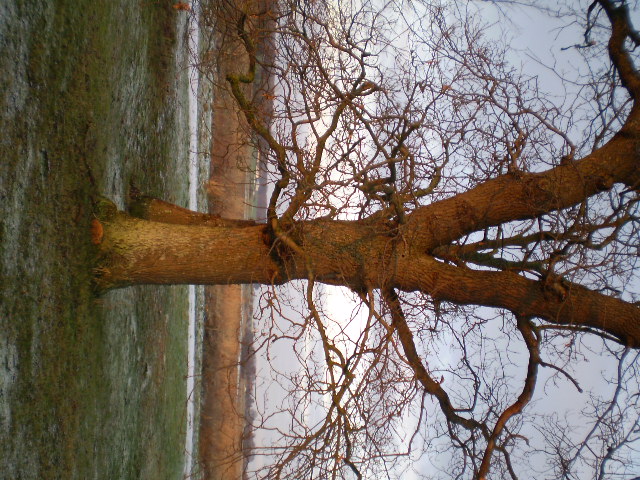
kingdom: Fungi
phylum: Basidiomycota
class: Agaricomycetes
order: Polyporales
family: Grifolaceae
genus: Grifola
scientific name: Grifola frondosa
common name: tueporesvamp
